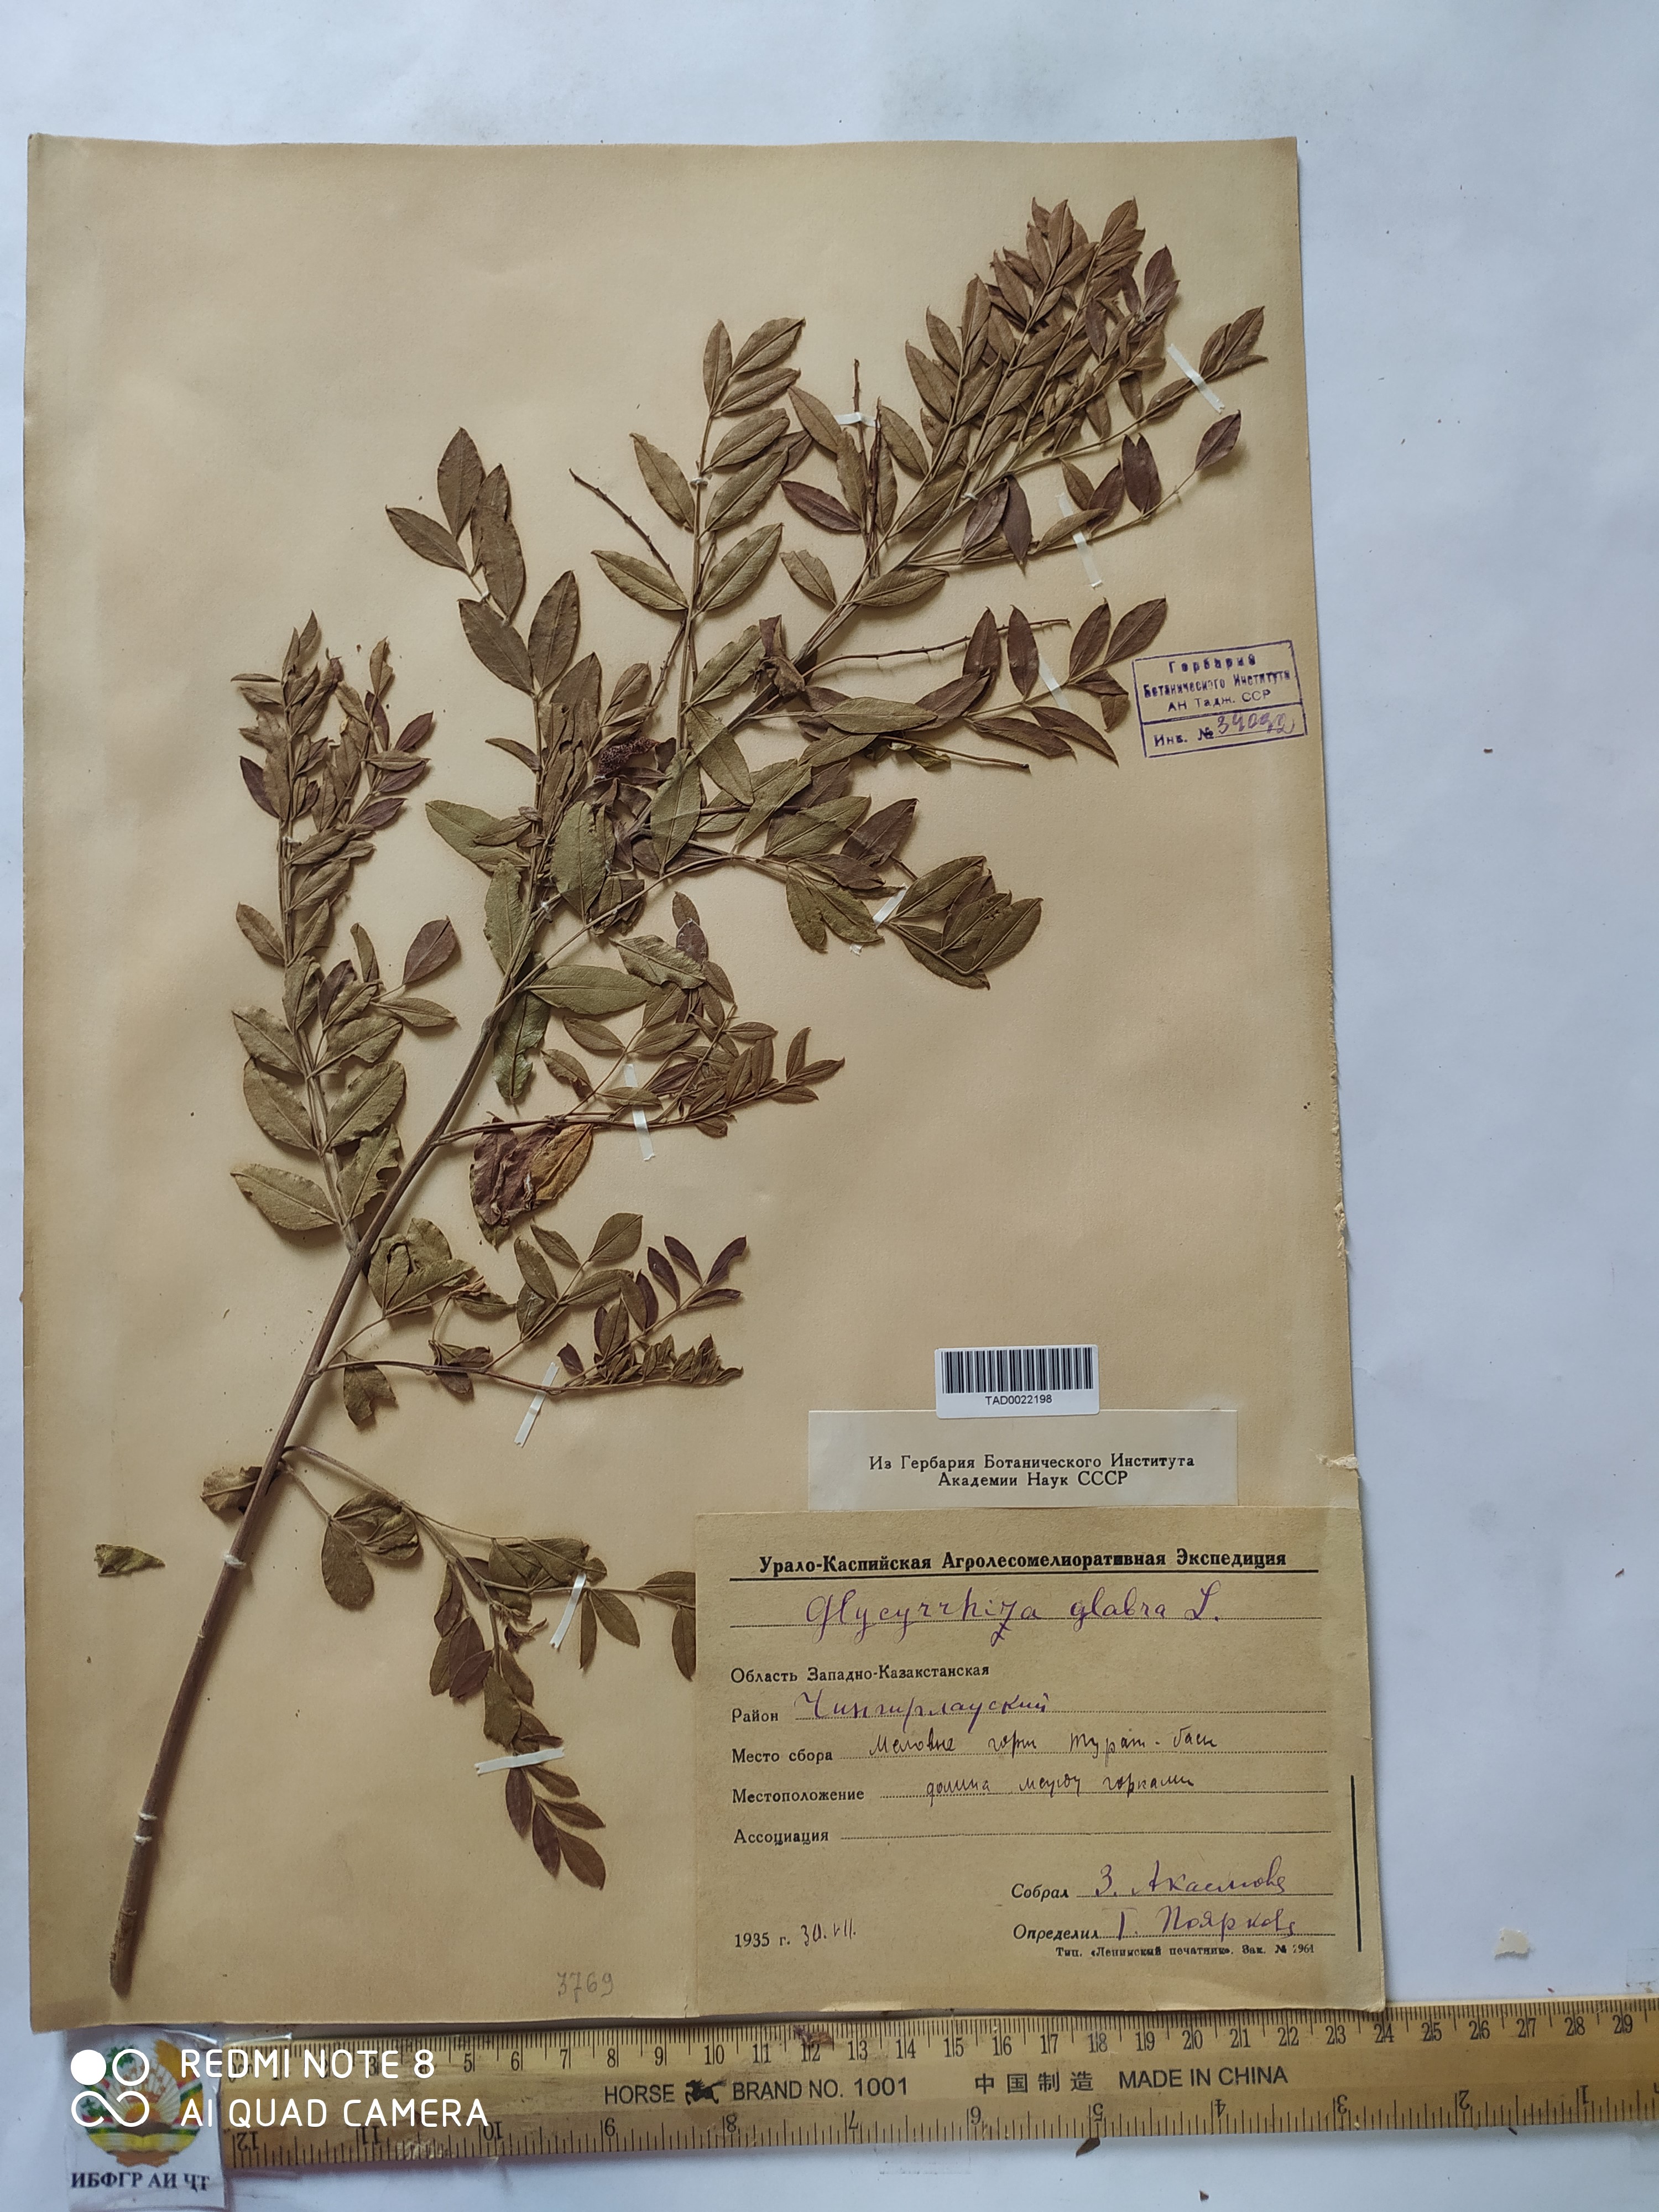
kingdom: Plantae
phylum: Tracheophyta
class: Magnoliopsida
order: Fabales
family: Fabaceae
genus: Glycyrrhiza
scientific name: Glycyrrhiza glabra
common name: Liquorice
